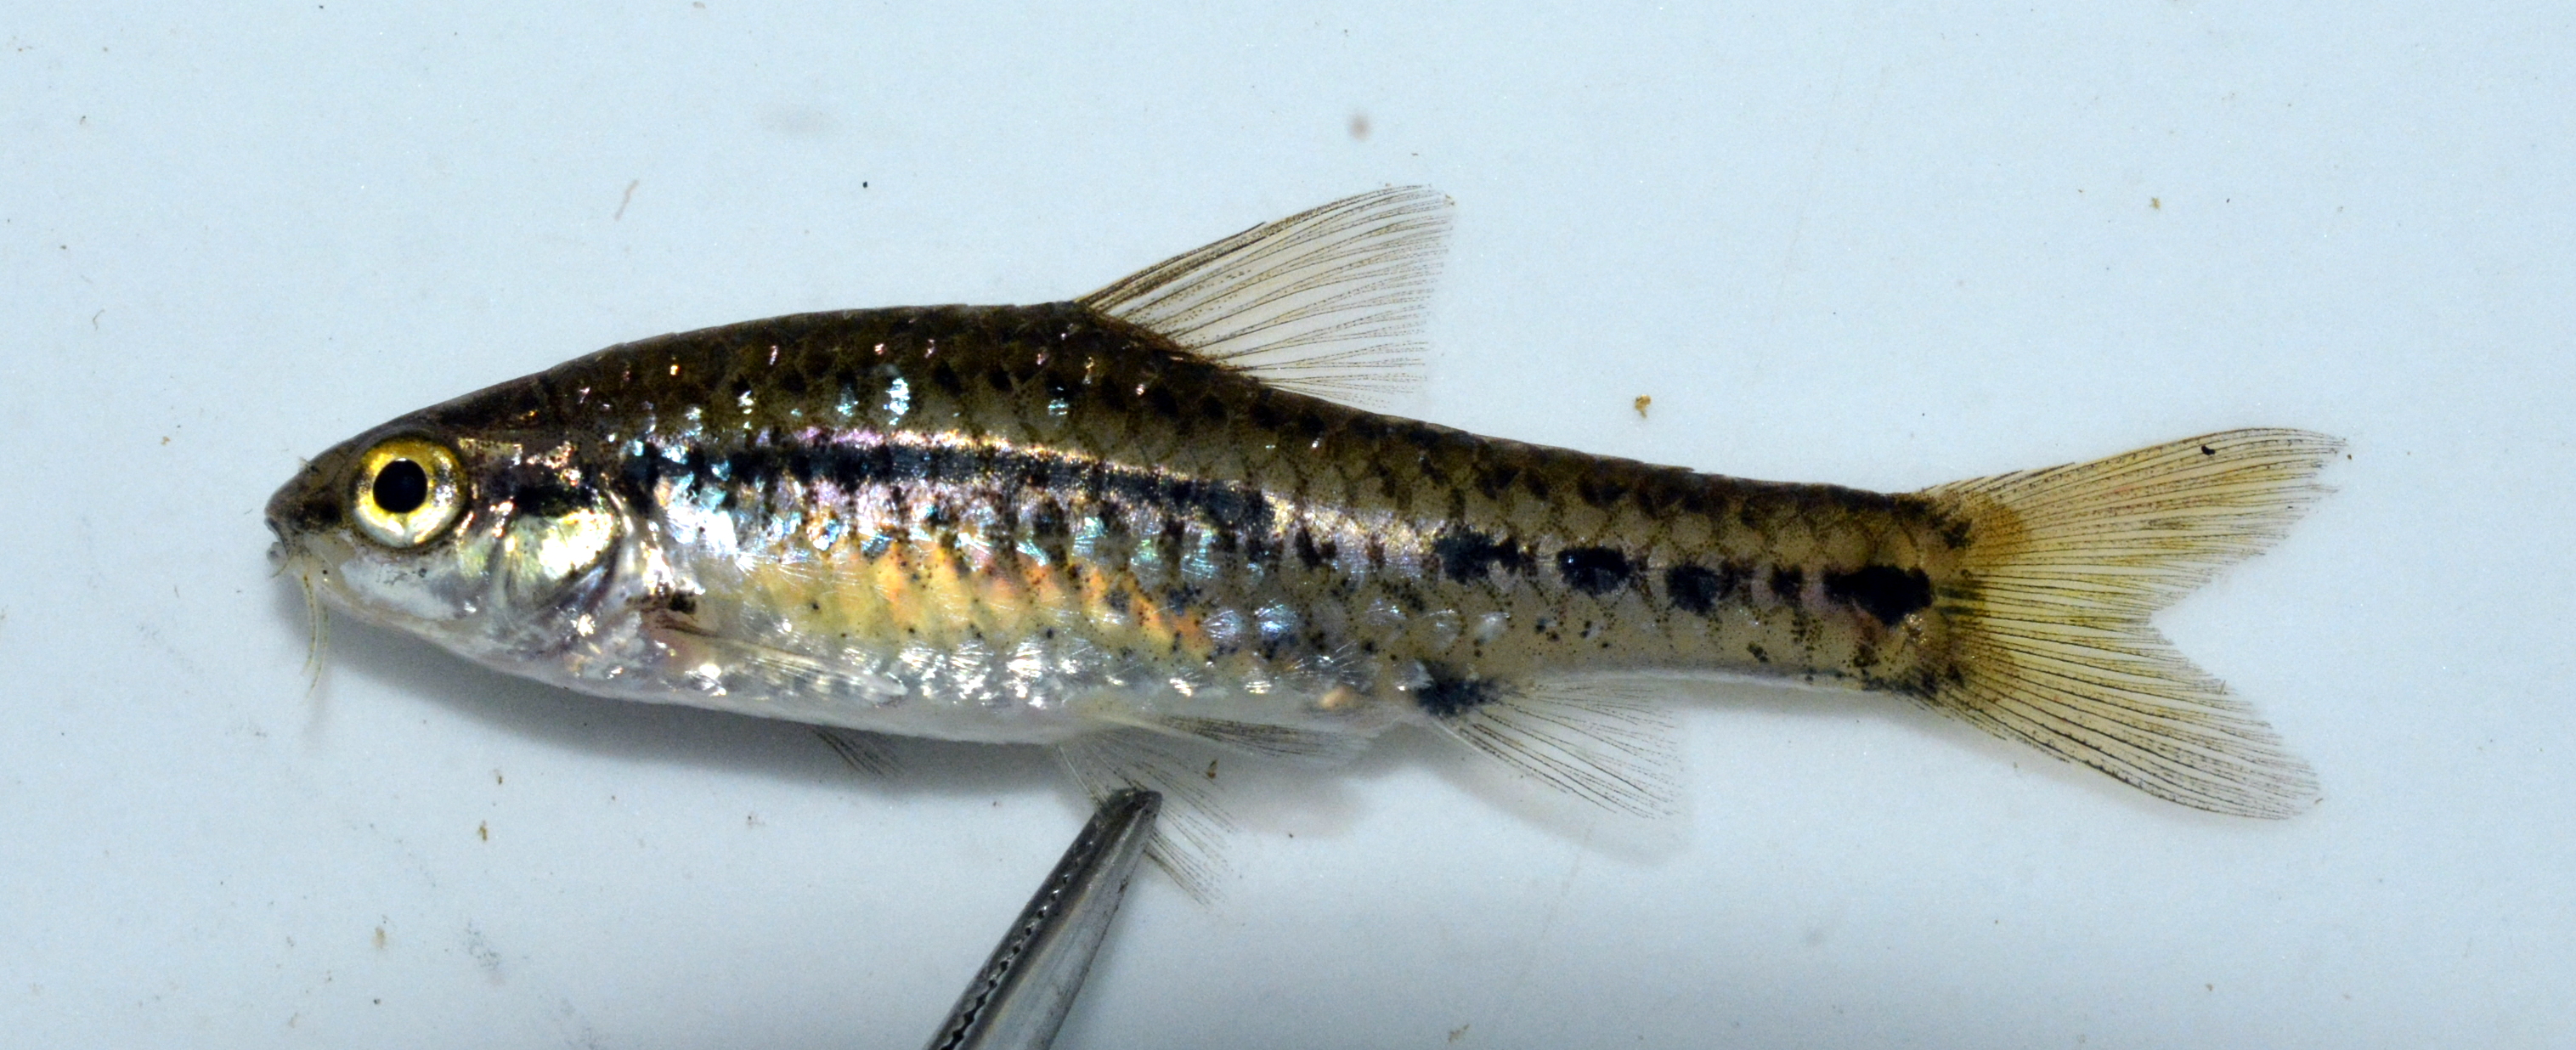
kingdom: Animalia
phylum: Chordata
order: Cypriniformes
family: Cyprinidae
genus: Enteromius
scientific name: Enteromius
